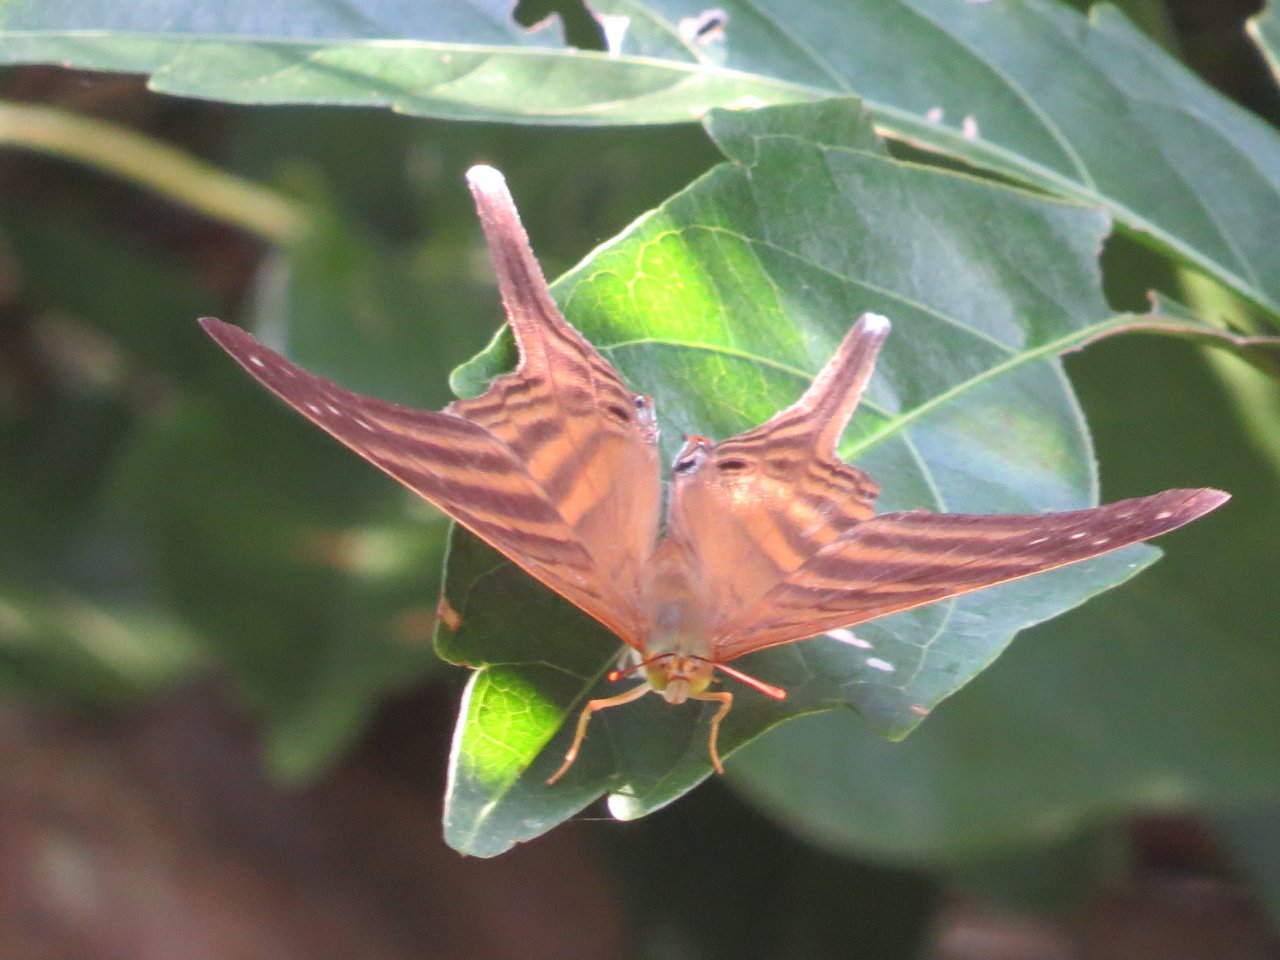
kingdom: Animalia
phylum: Arthropoda
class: Insecta
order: Lepidoptera
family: Nymphalidae
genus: Marpesia
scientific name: Marpesia chiron
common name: Many-banded Daggerwing
